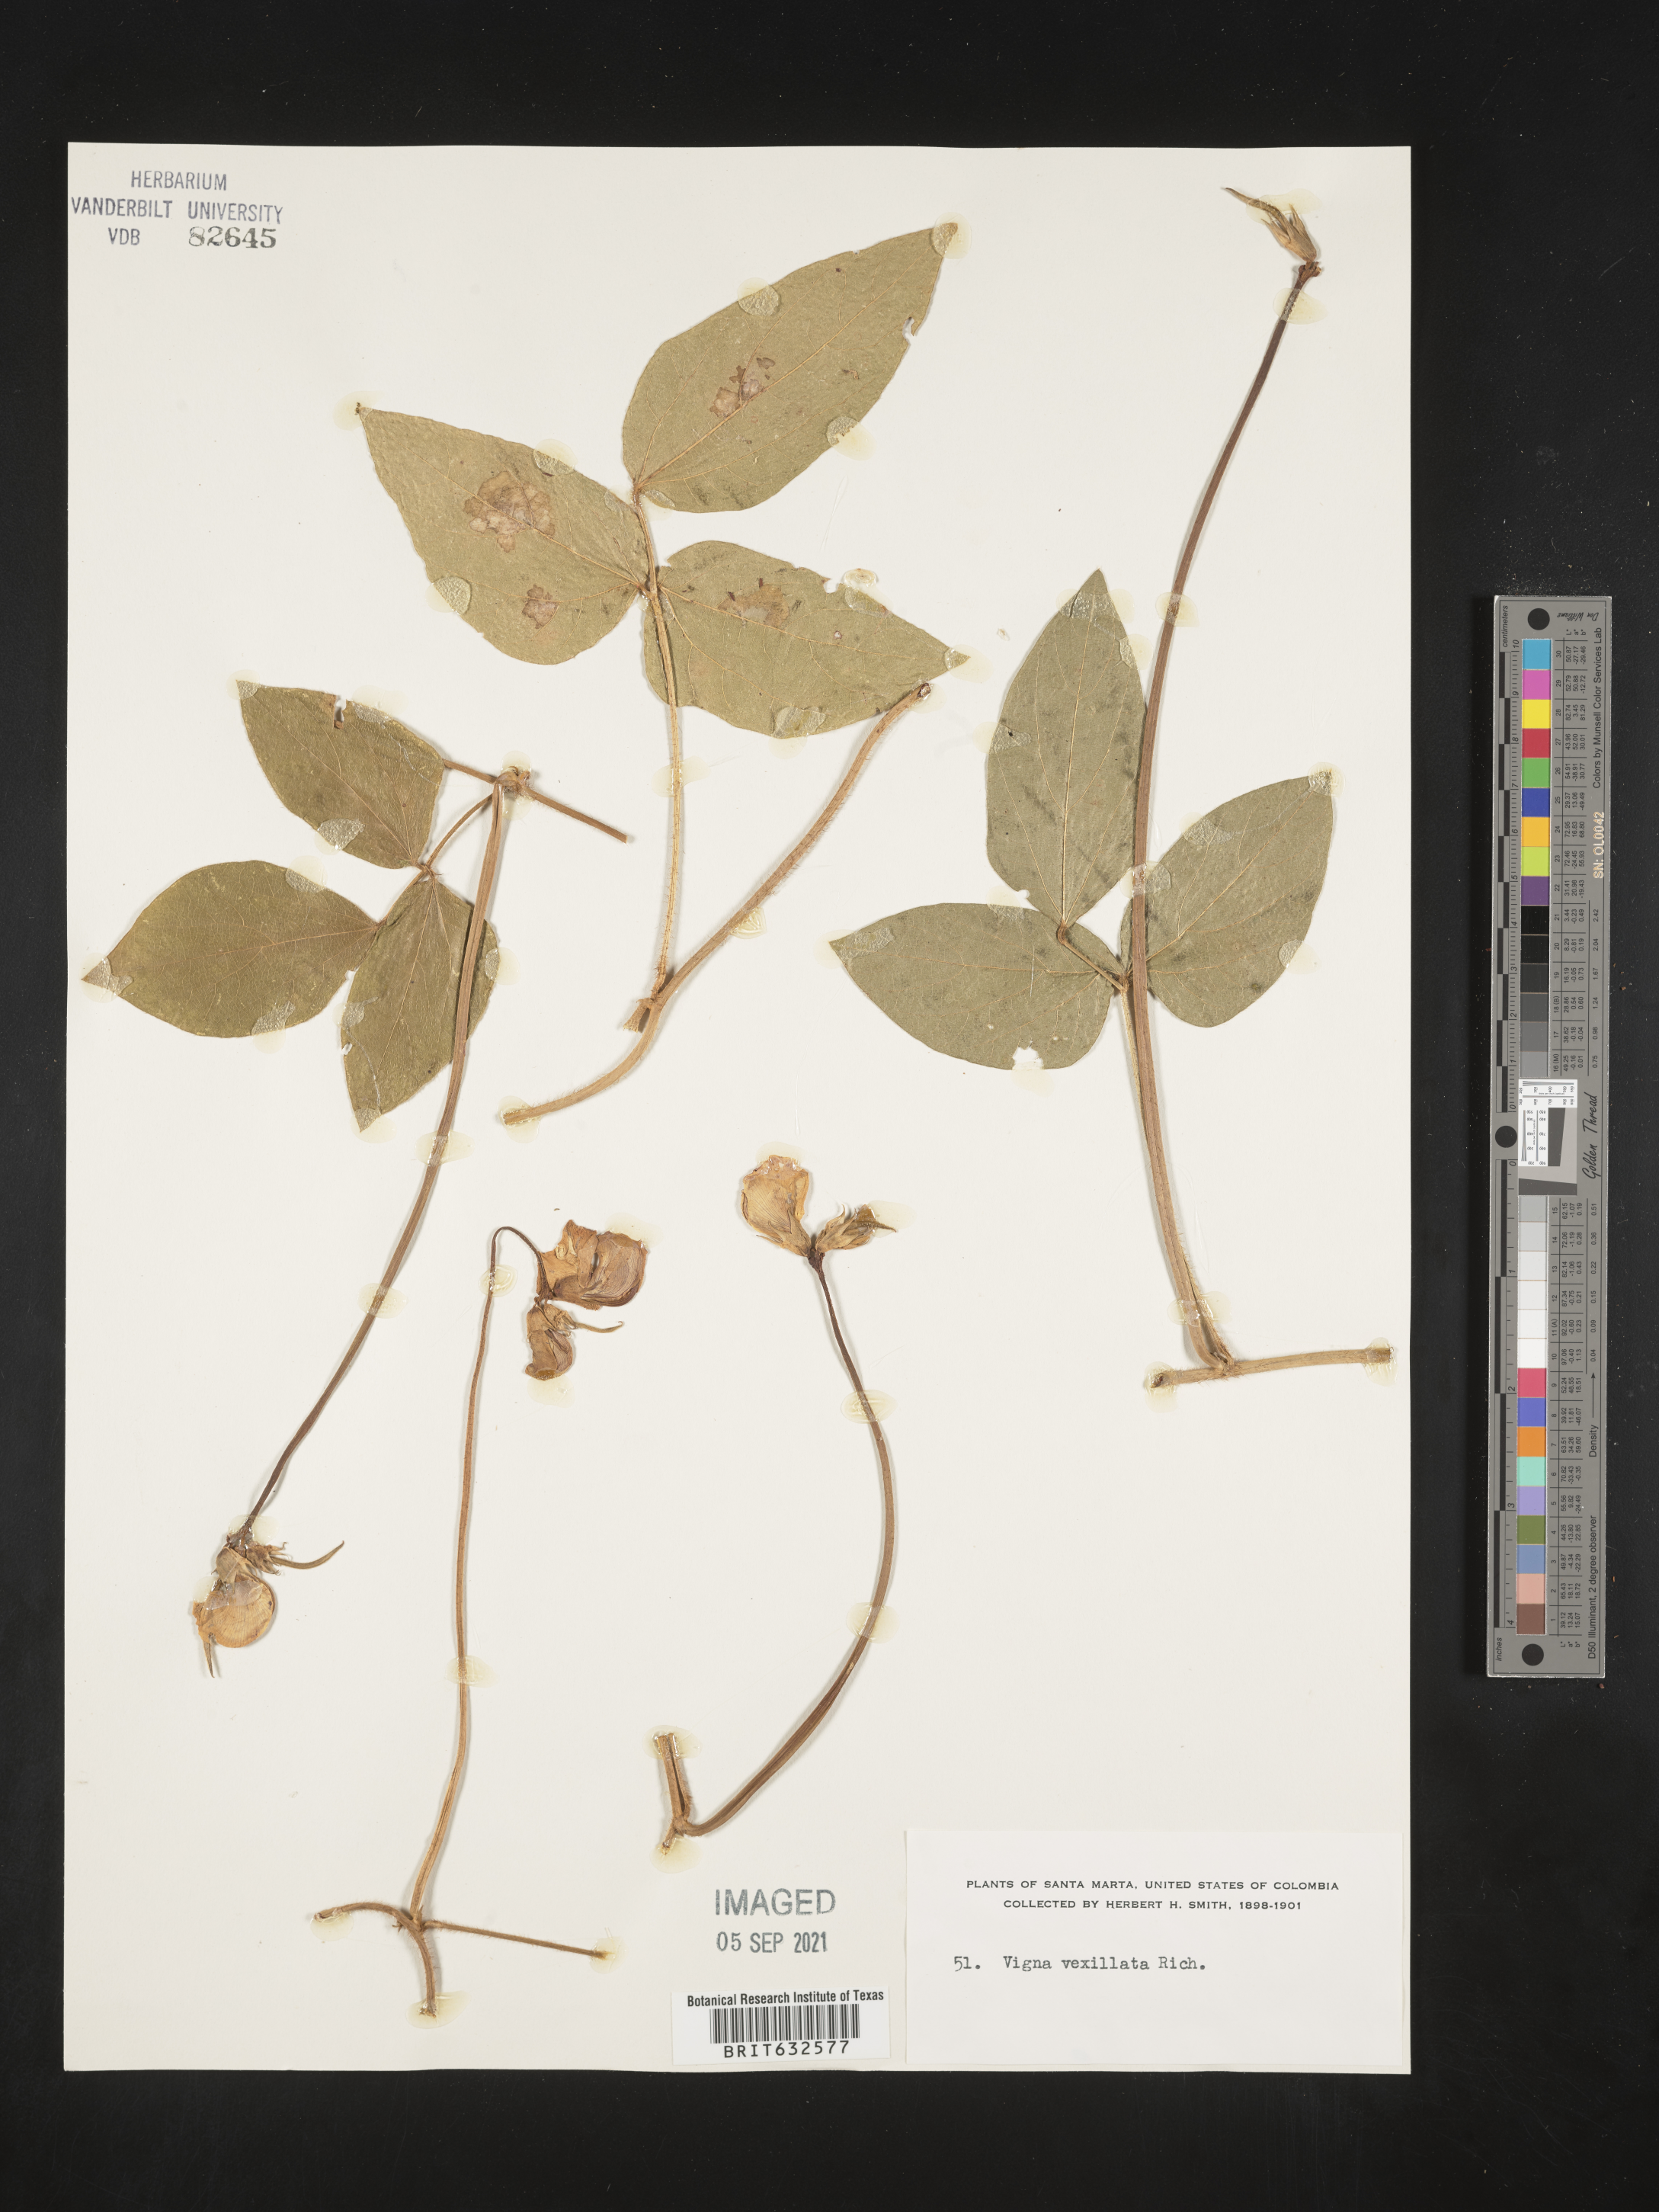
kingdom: Plantae
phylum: Tracheophyta
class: Magnoliopsida
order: Fabales
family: Fabaceae
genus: Vigna
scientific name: Vigna
